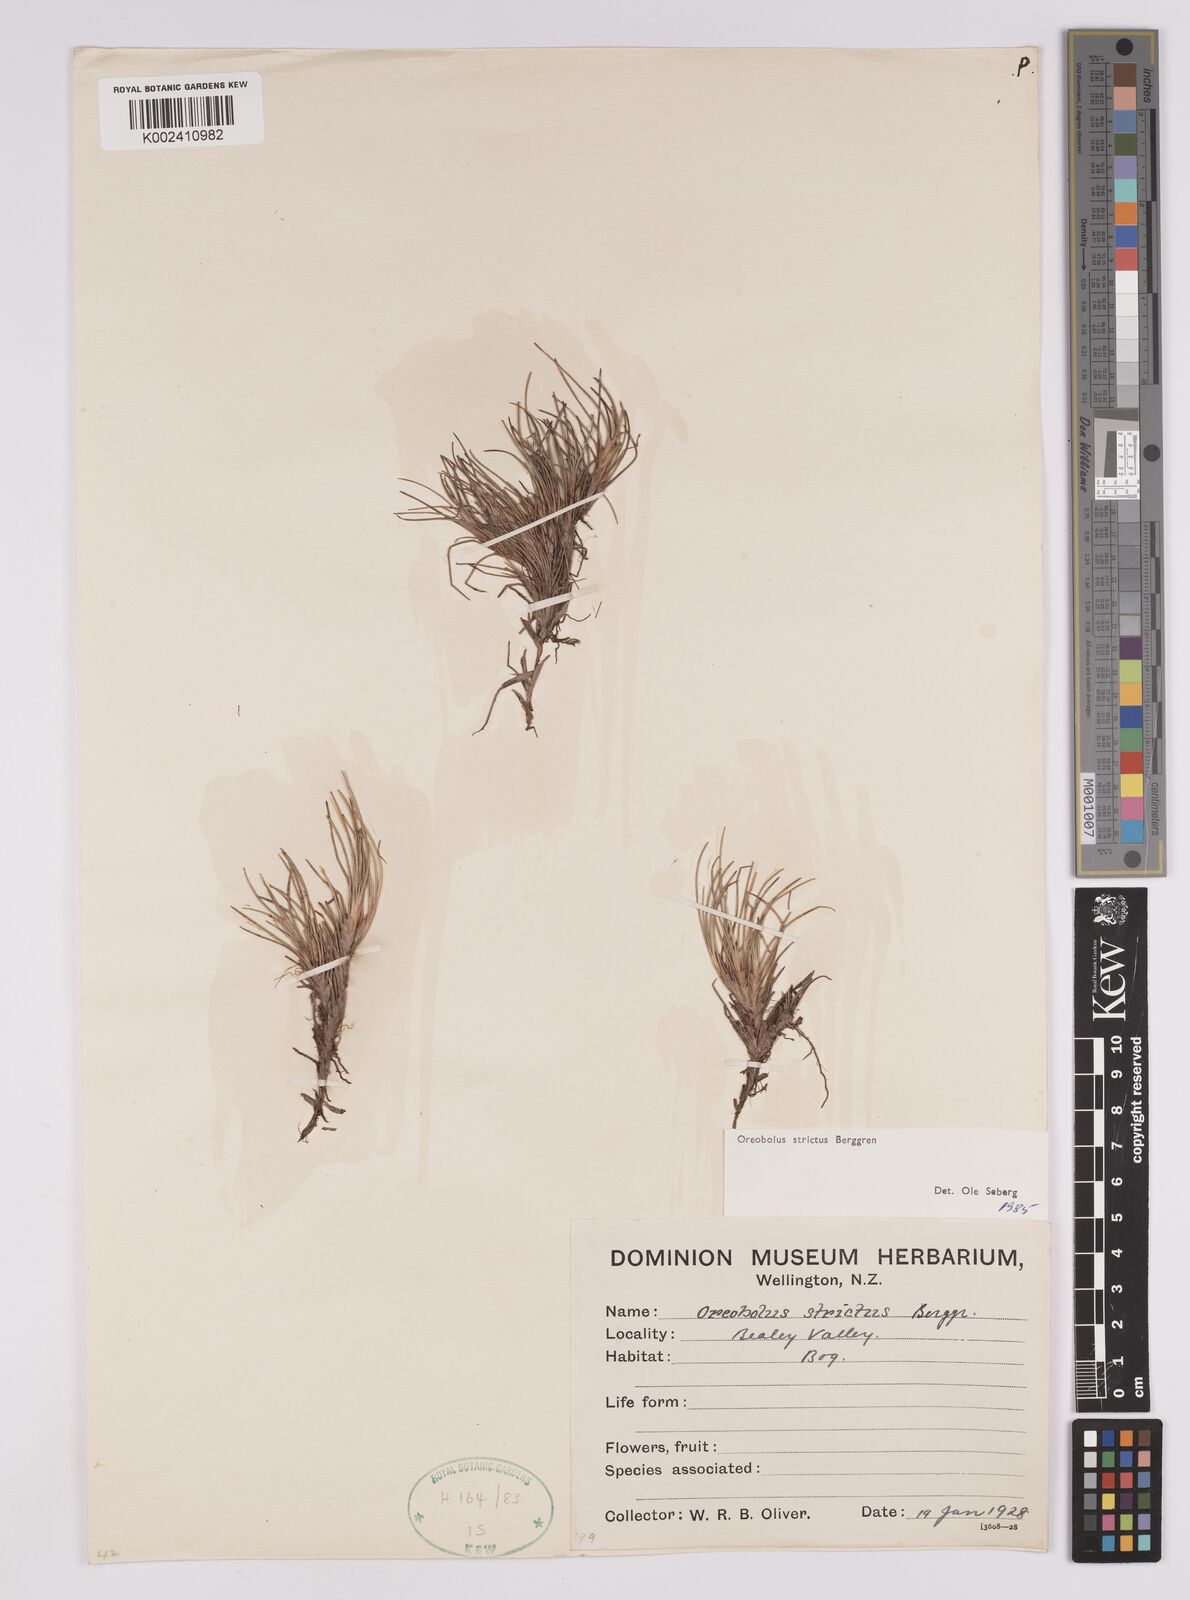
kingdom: Plantae
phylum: Tracheophyta
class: Liliopsida
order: Poales
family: Cyperaceae
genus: Oreobolus
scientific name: Oreobolus strictus
